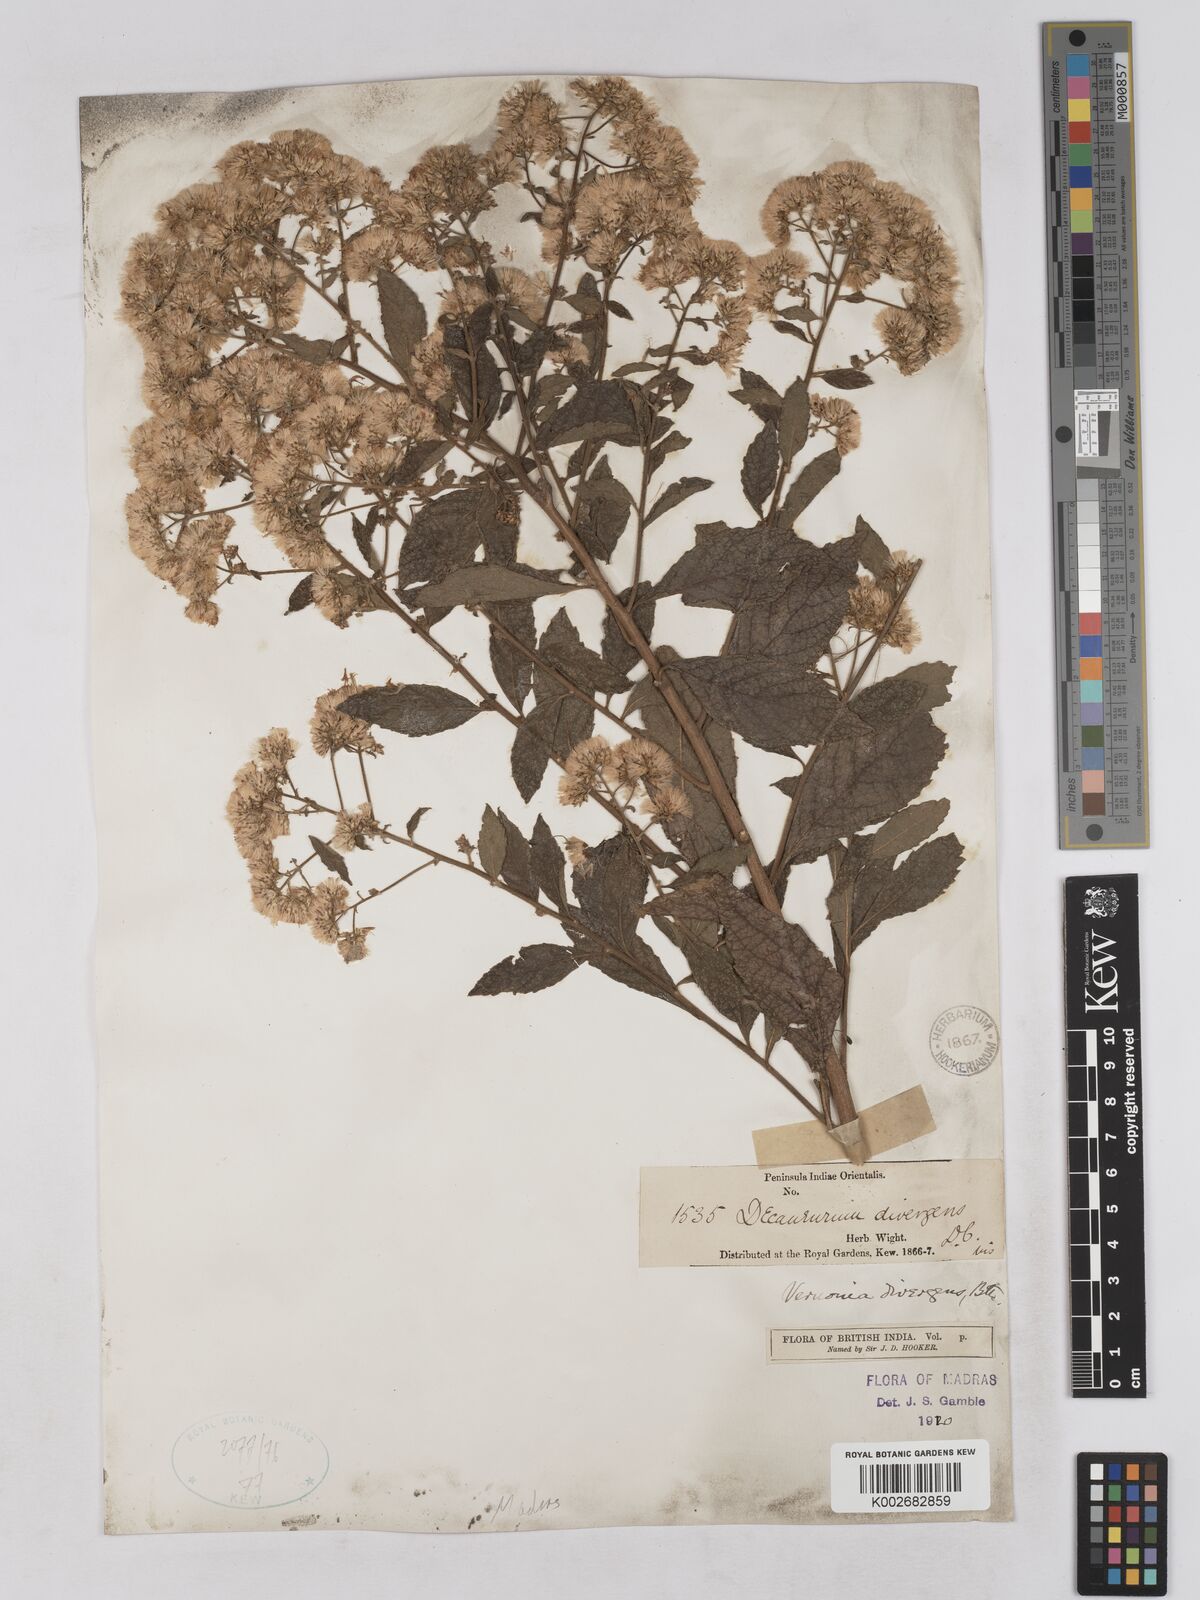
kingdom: Plantae
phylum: Tracheophyta
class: Magnoliopsida
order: Asterales
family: Asteraceae
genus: Acilepis
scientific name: Acilepis divergens
